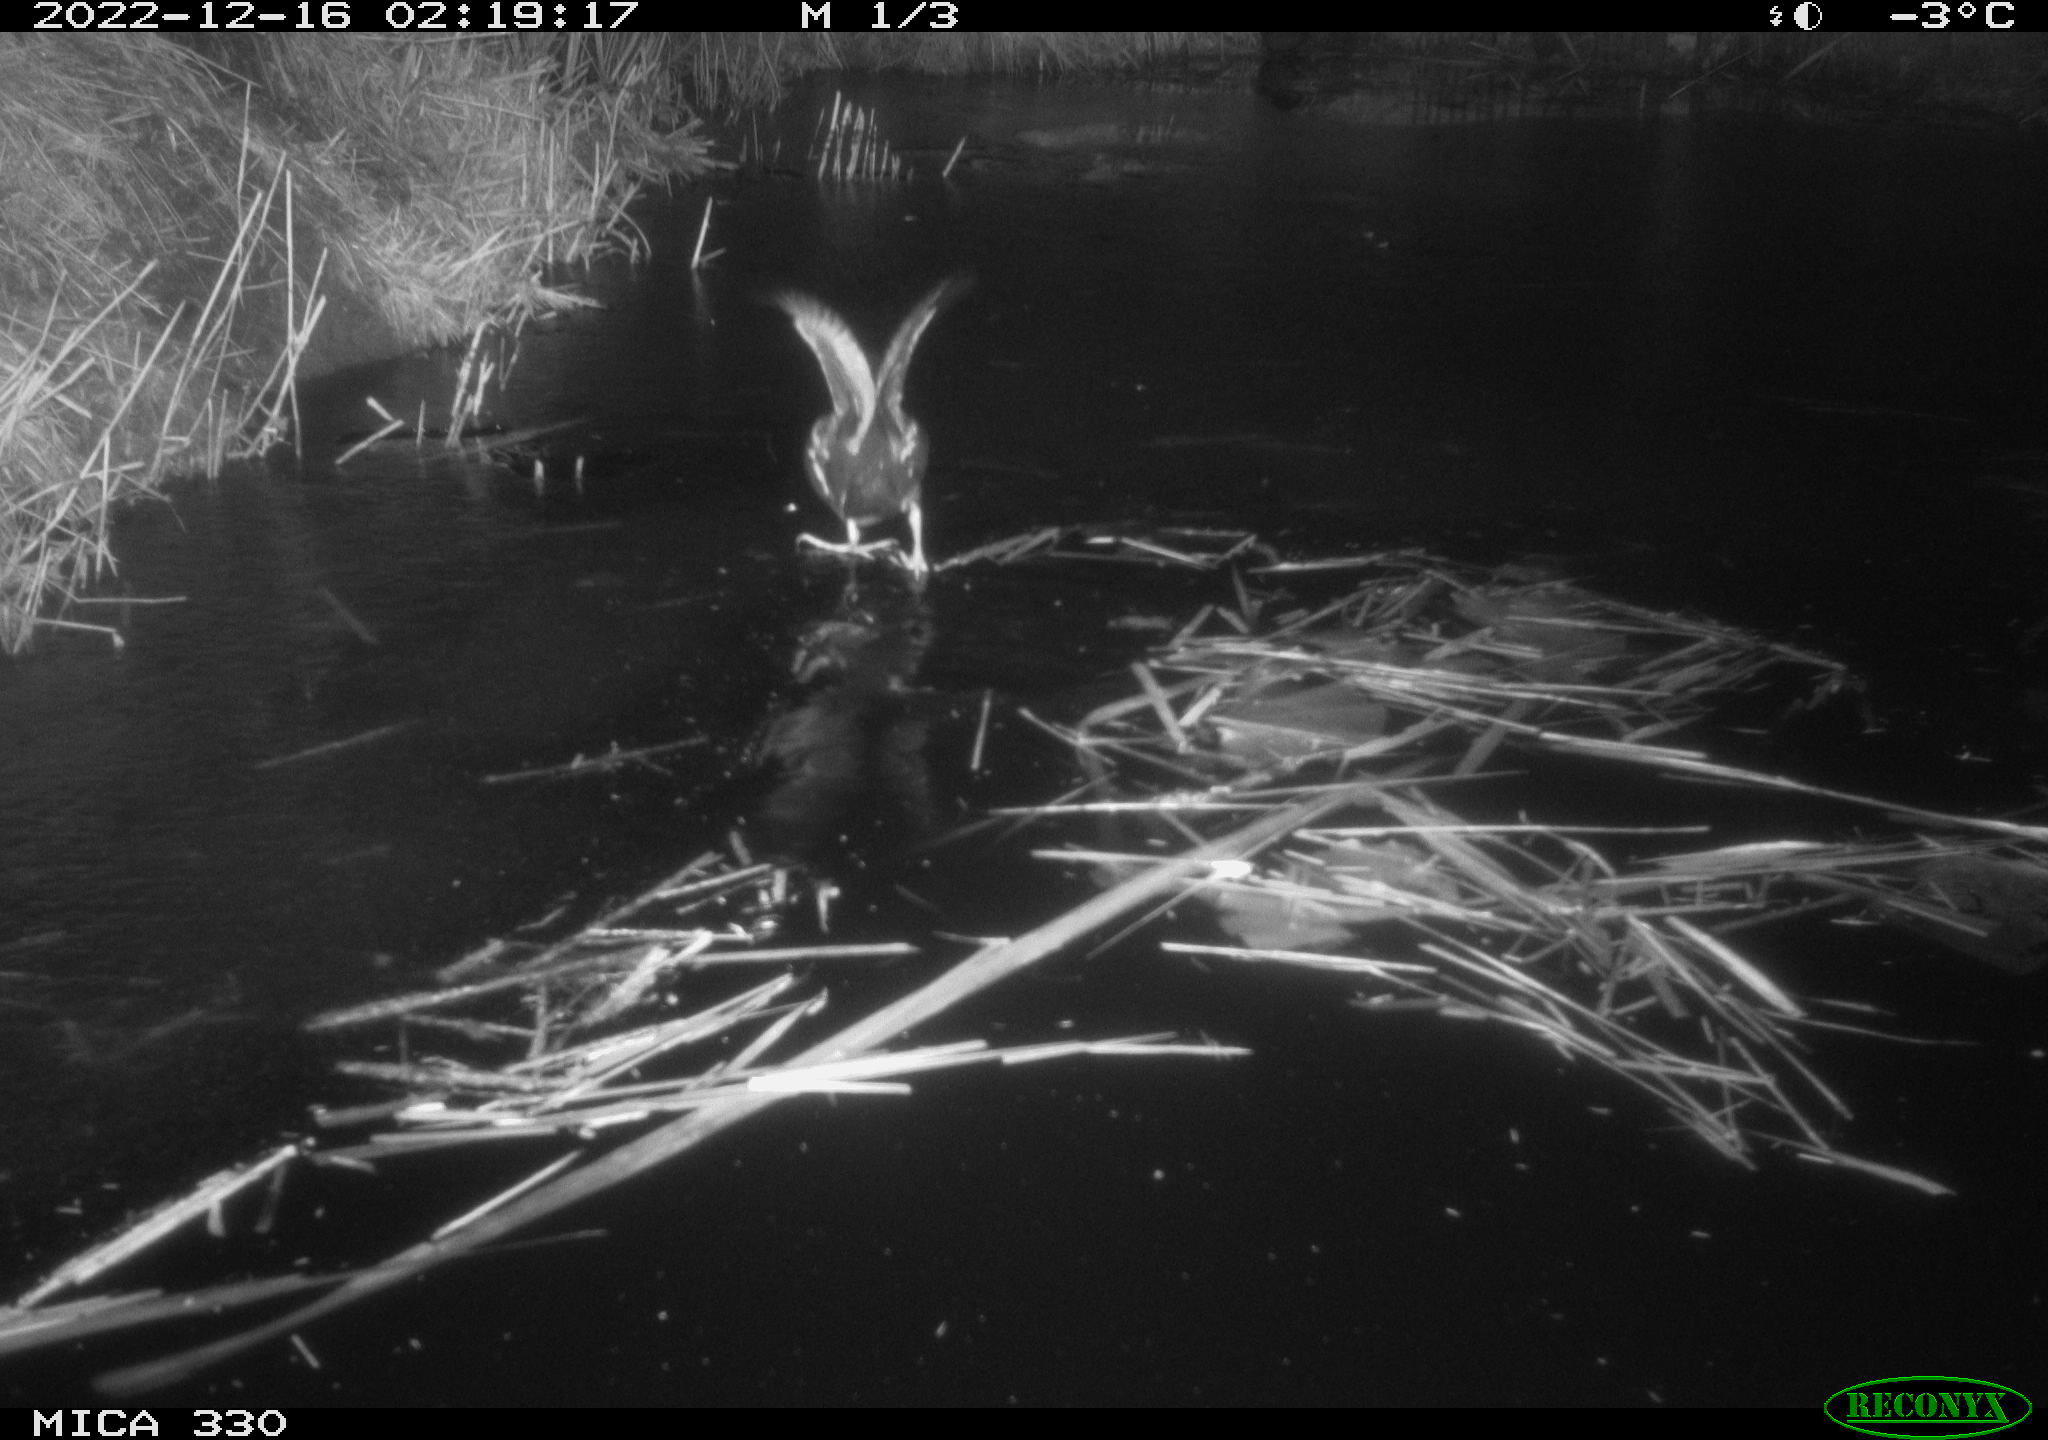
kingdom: Animalia
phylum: Chordata
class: Aves
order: Gruiformes
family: Rallidae
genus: Gallinula
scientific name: Gallinula chloropus
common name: Common moorhen
